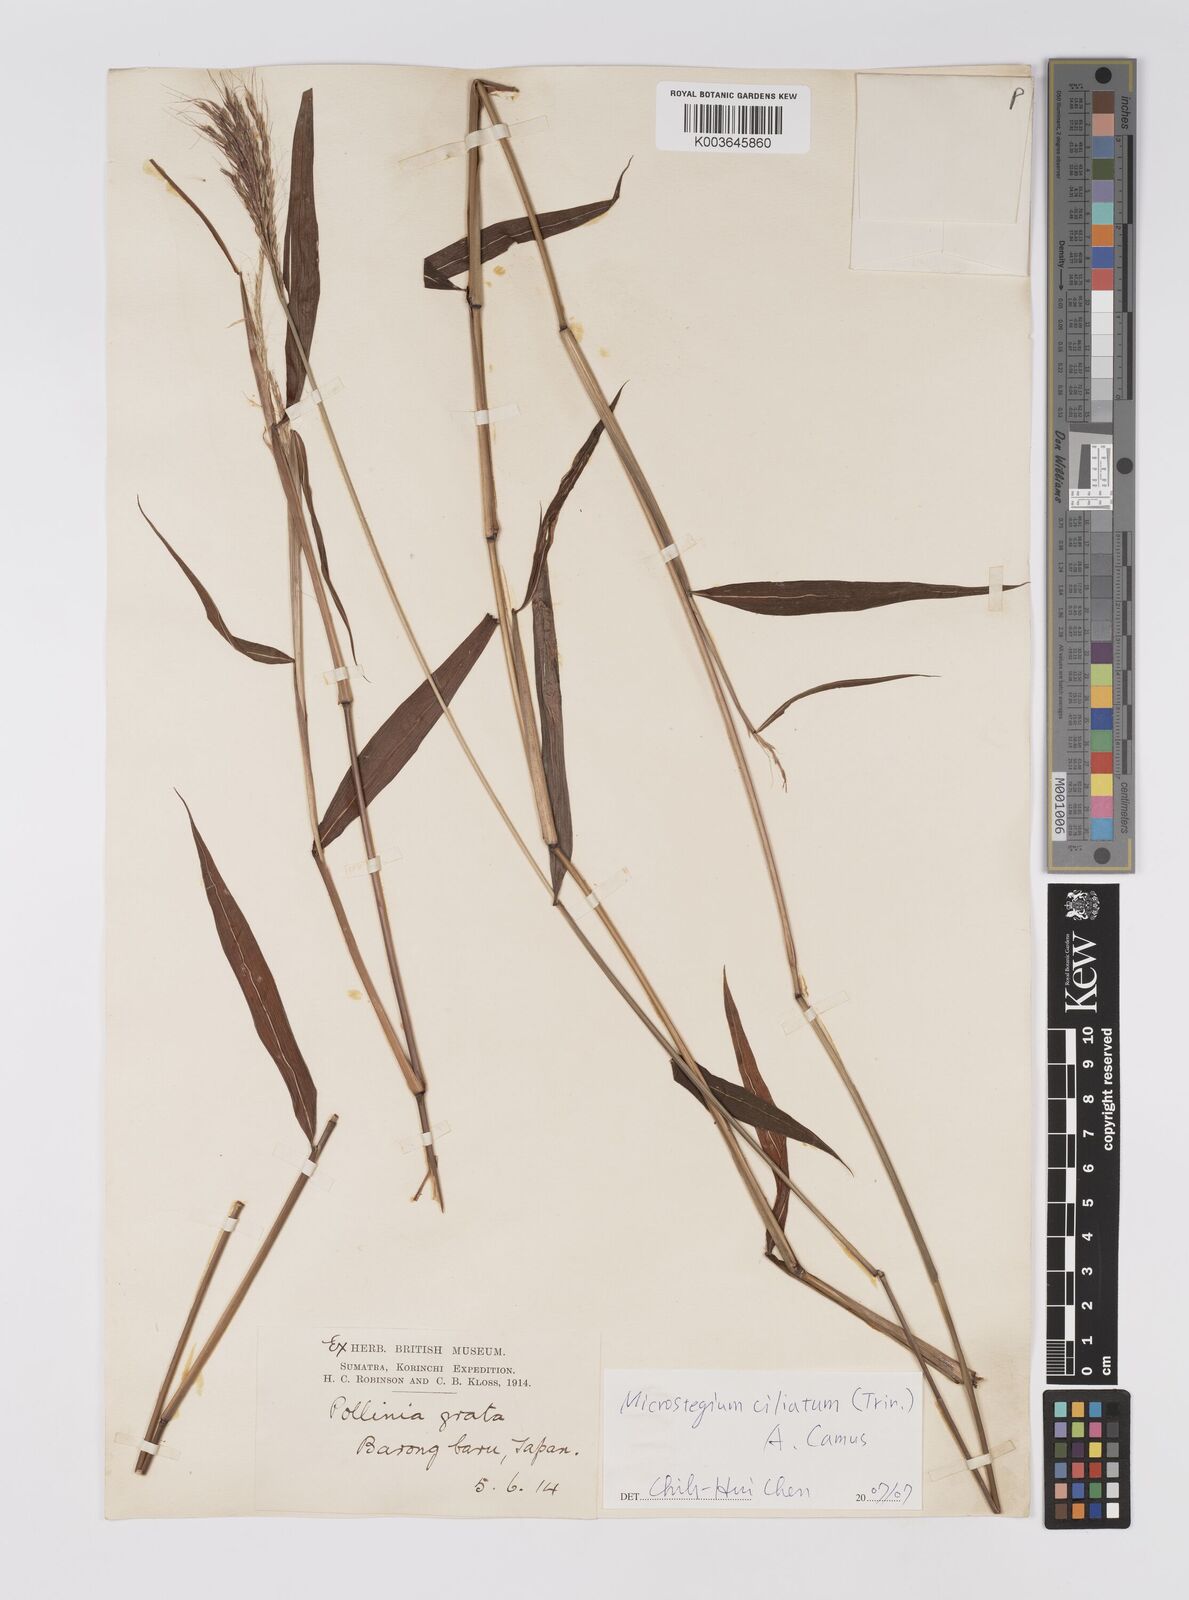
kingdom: Plantae
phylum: Tracheophyta
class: Liliopsida
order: Poales
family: Poaceae
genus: Microstegium
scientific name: Microstegium fasciculatum
